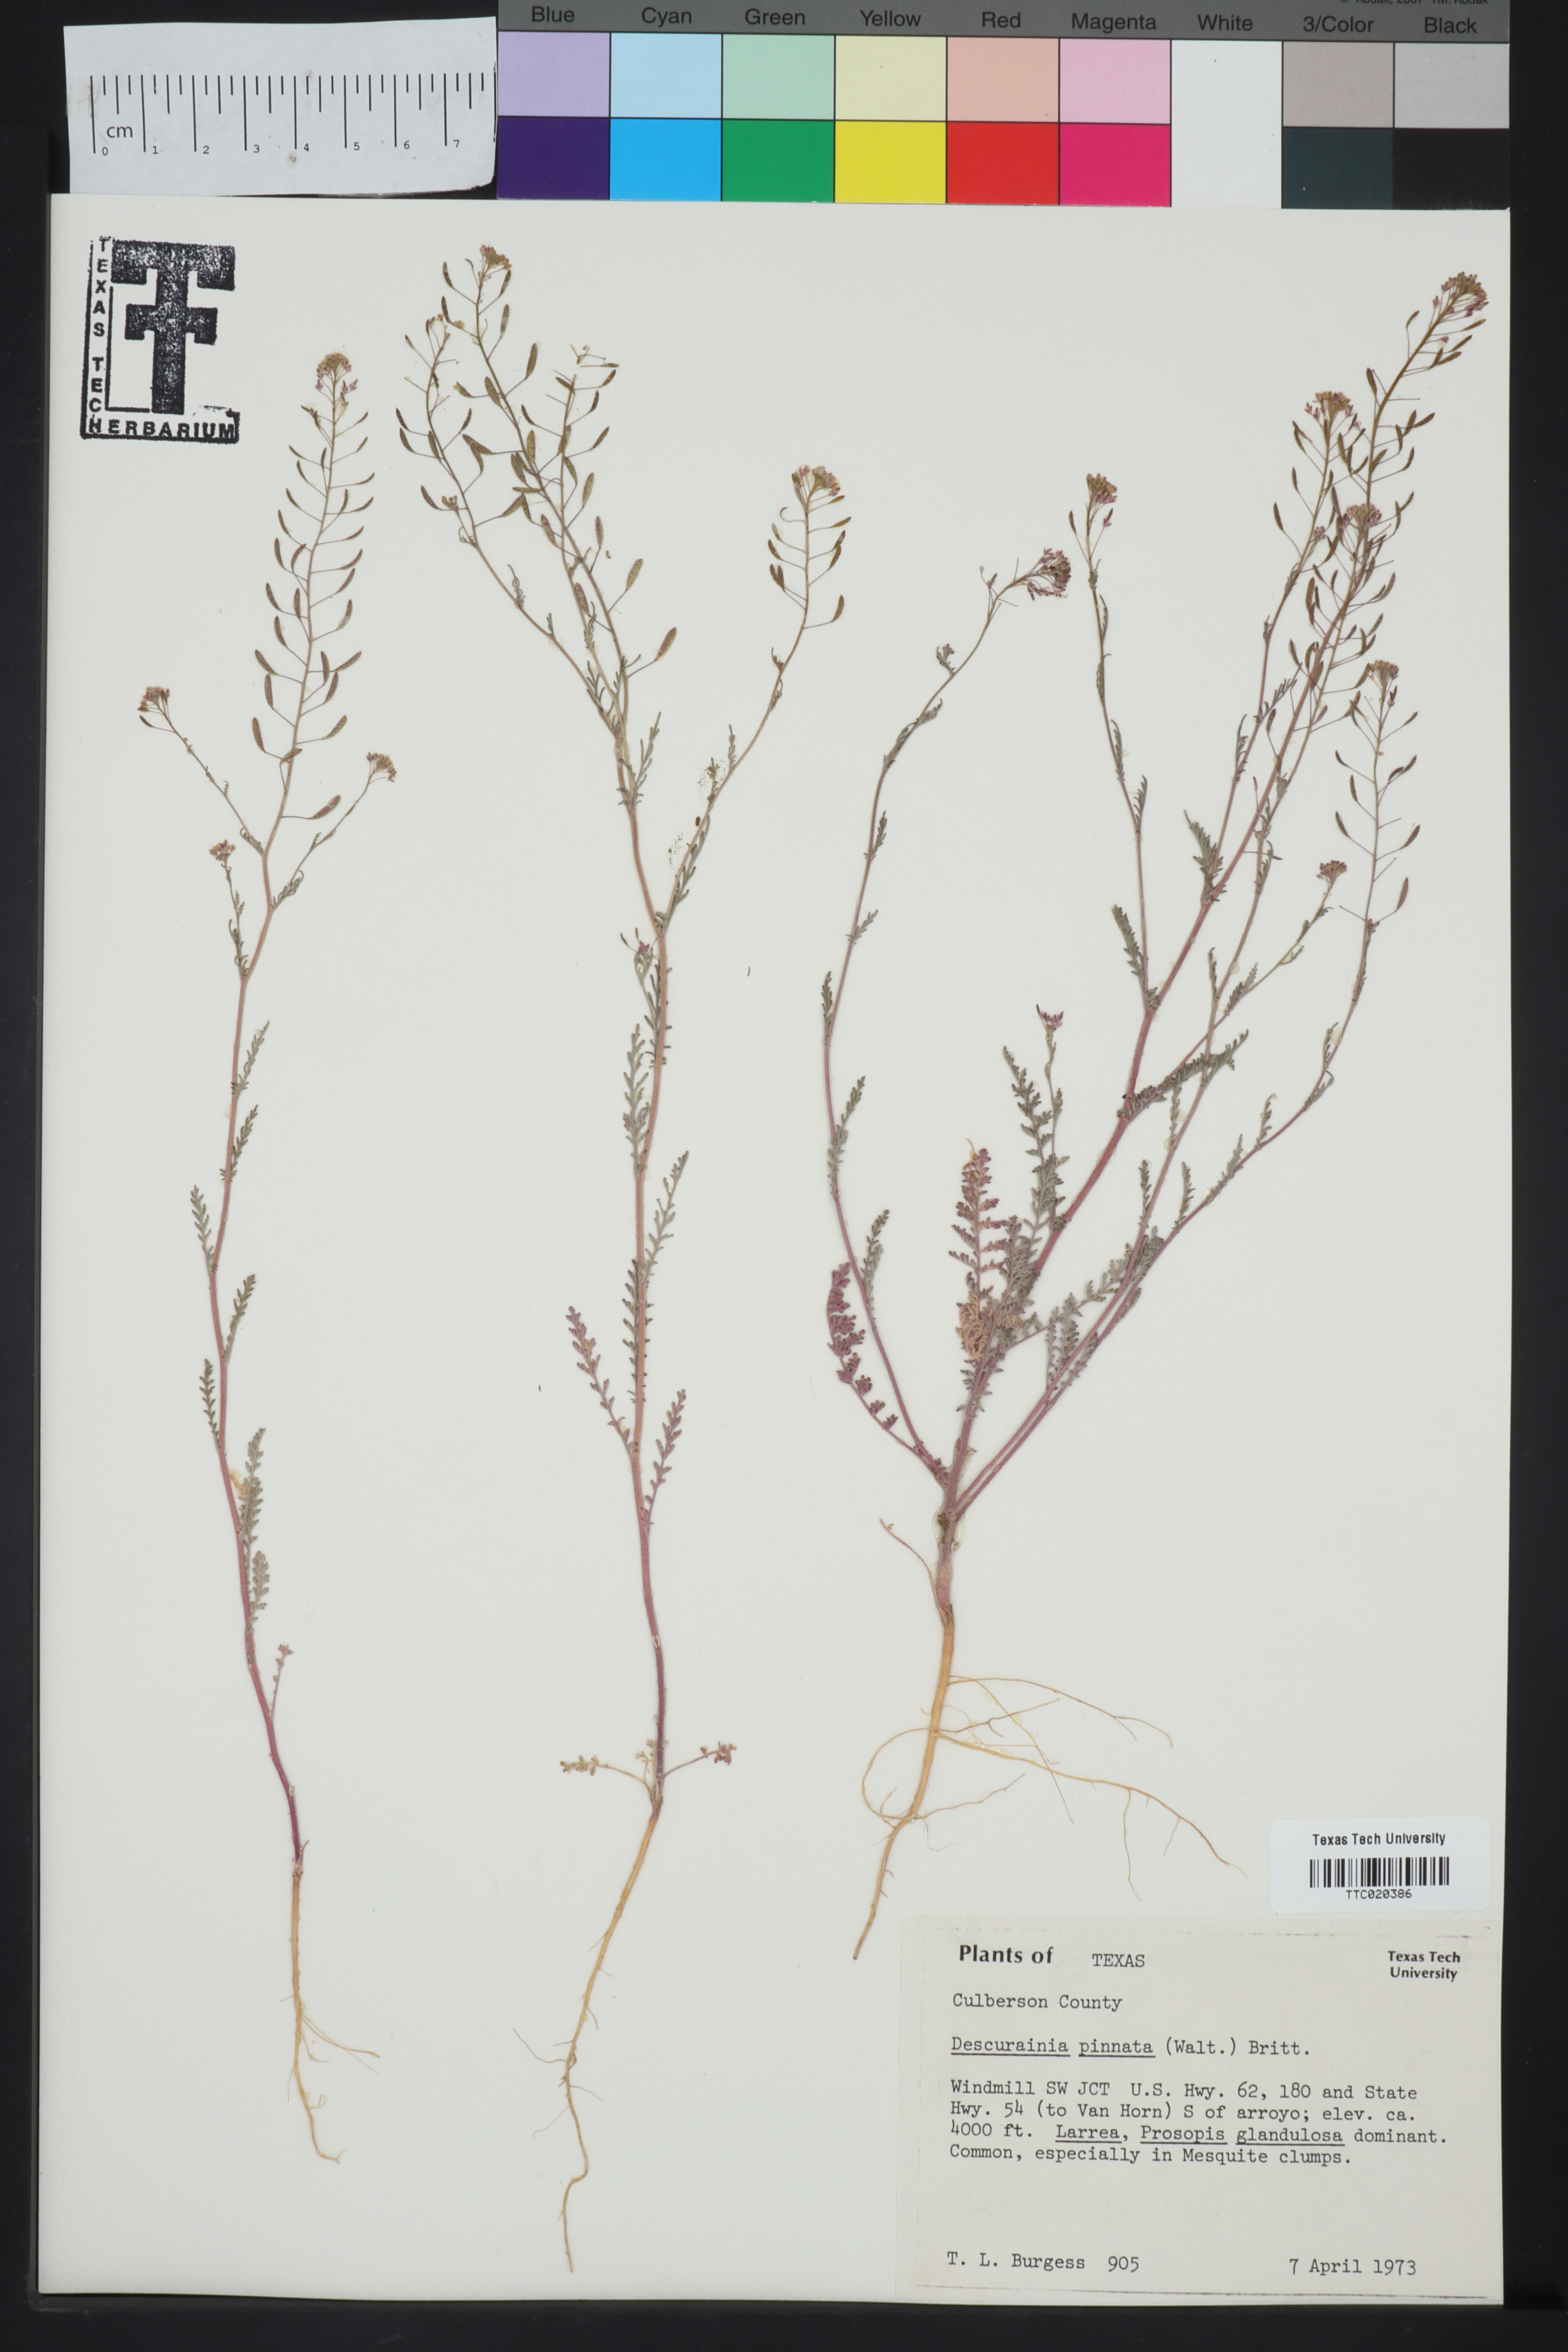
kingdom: Plantae
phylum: Tracheophyta
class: Magnoliopsida
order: Brassicales
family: Brassicaceae
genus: Descurainia
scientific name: Descurainia pinnata
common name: Western tansy mustard
